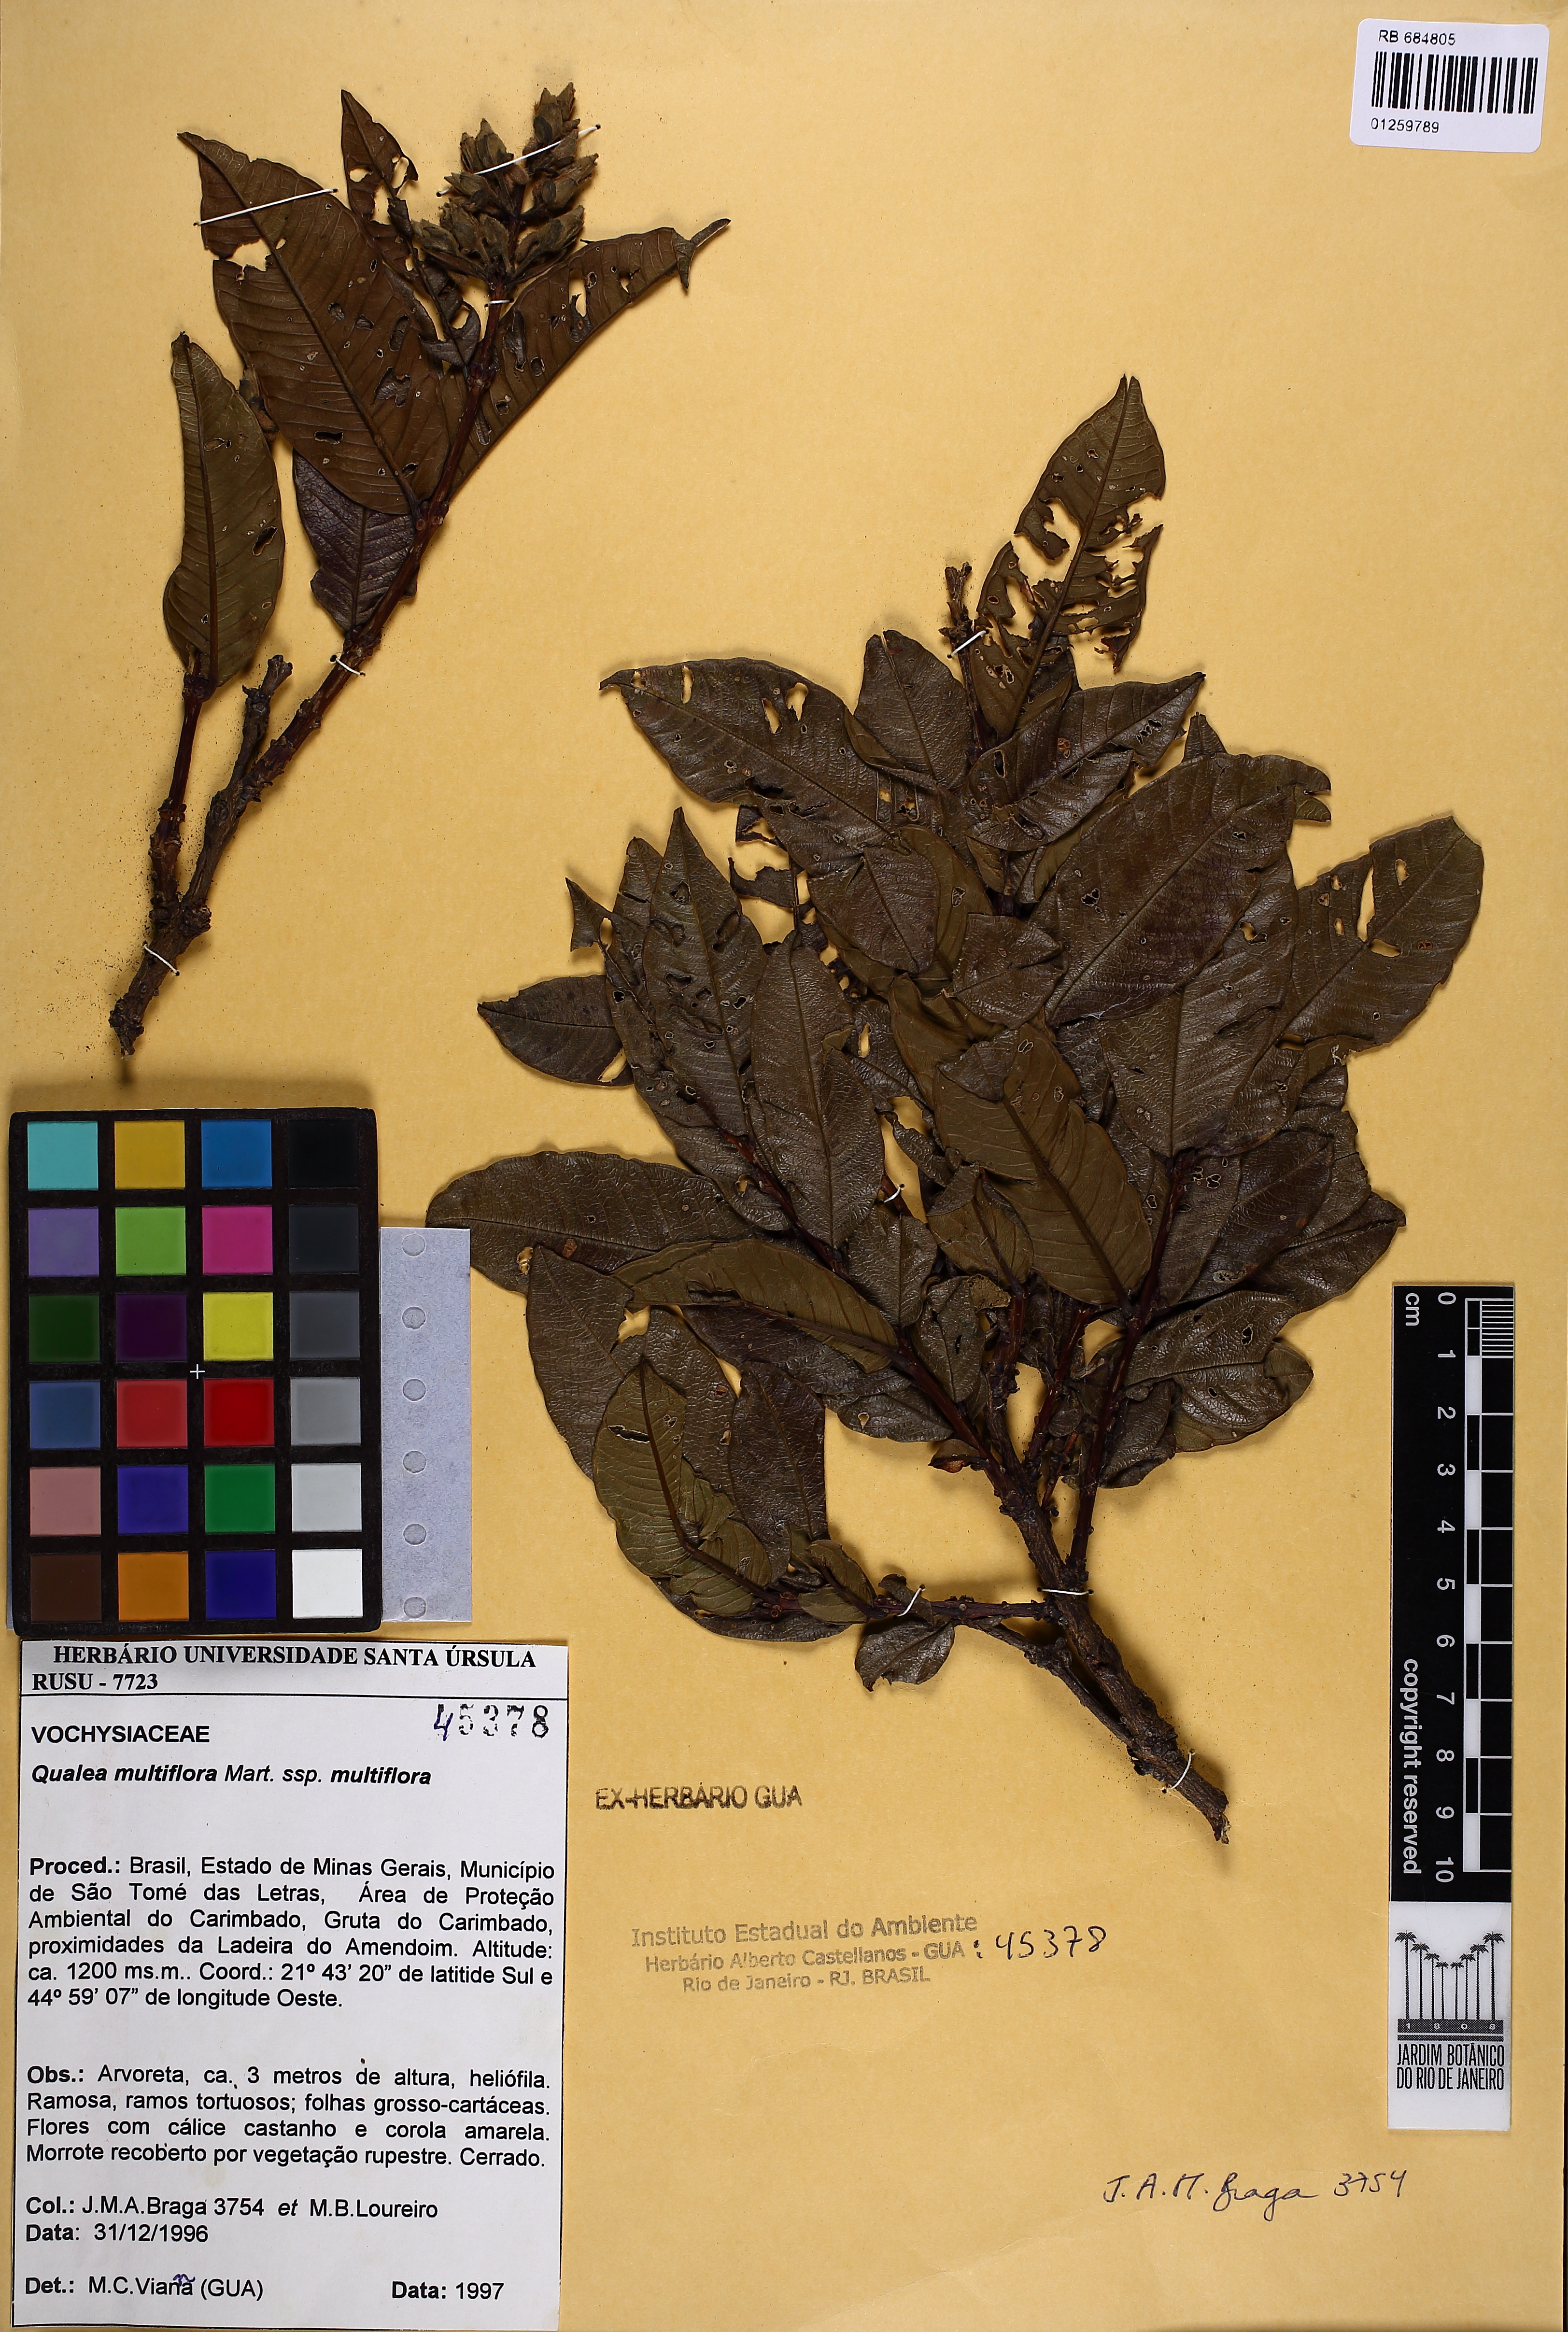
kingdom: Plantae
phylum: Tracheophyta
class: Magnoliopsida
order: Myrtales
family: Vochysiaceae
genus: Qualea
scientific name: Qualea multiflora
